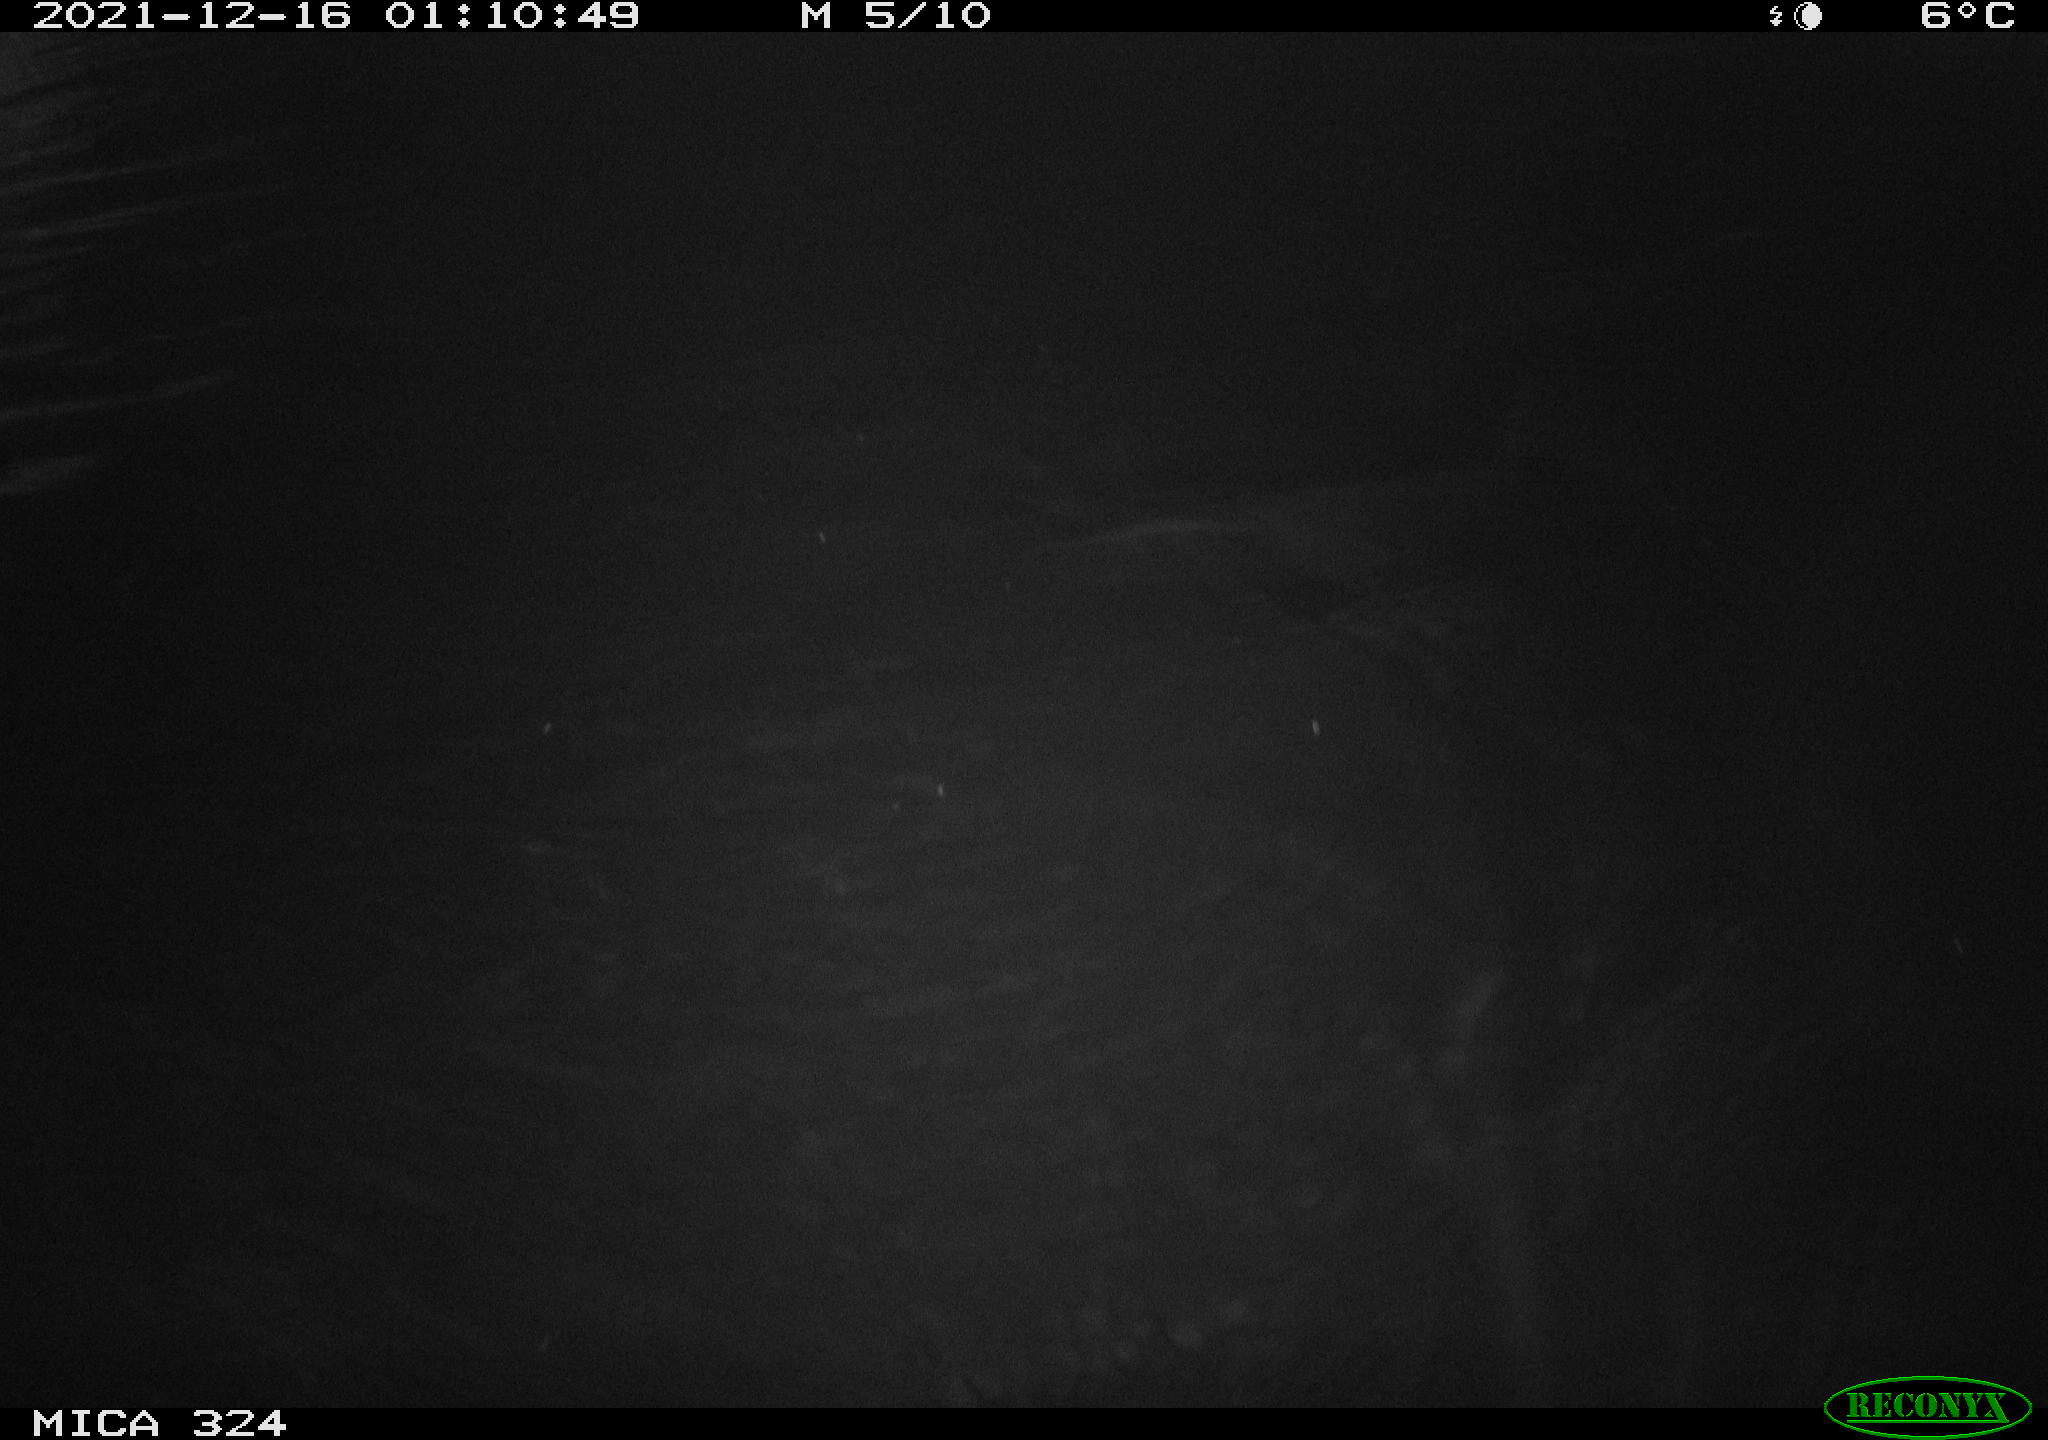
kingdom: Animalia
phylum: Chordata
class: Mammalia
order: Rodentia
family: Cricetidae
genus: Ondatra
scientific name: Ondatra zibethicus
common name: Muskrat
